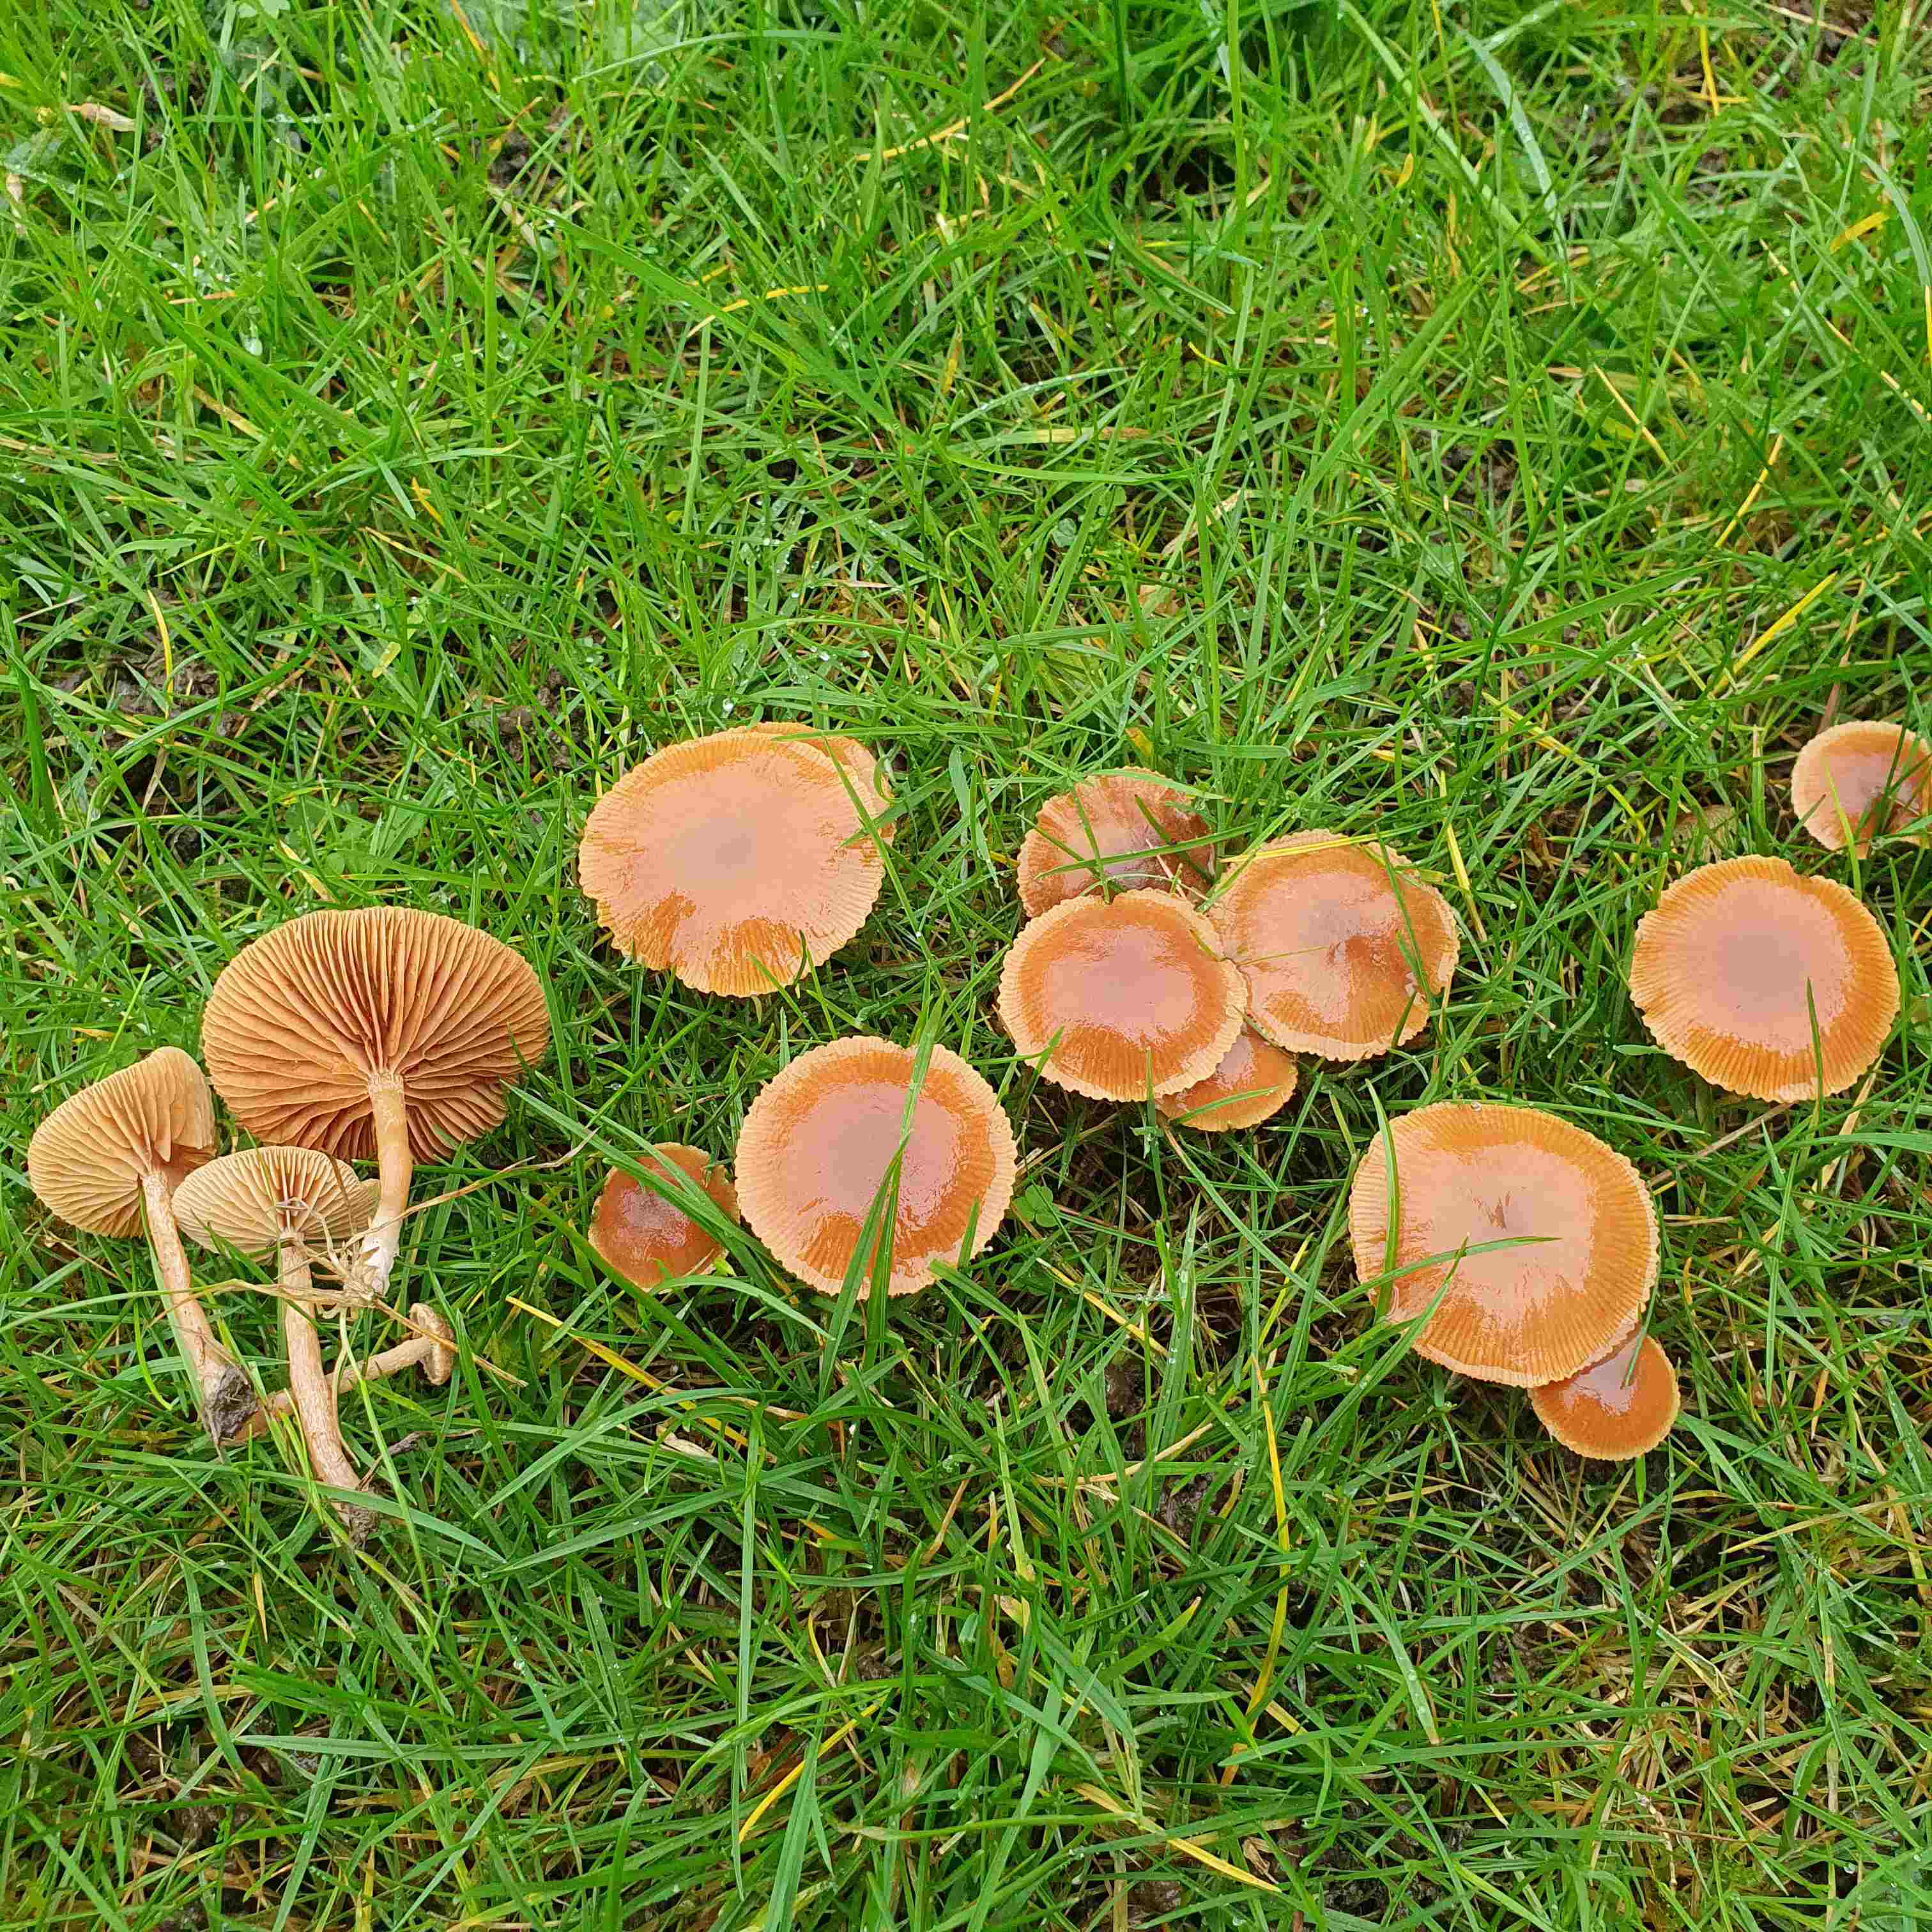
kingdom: Fungi
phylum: Basidiomycota
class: Agaricomycetes
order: Agaricales
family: Tubariaceae
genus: Tubaria
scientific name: Tubaria furfuracea
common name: kliddet fnughat
